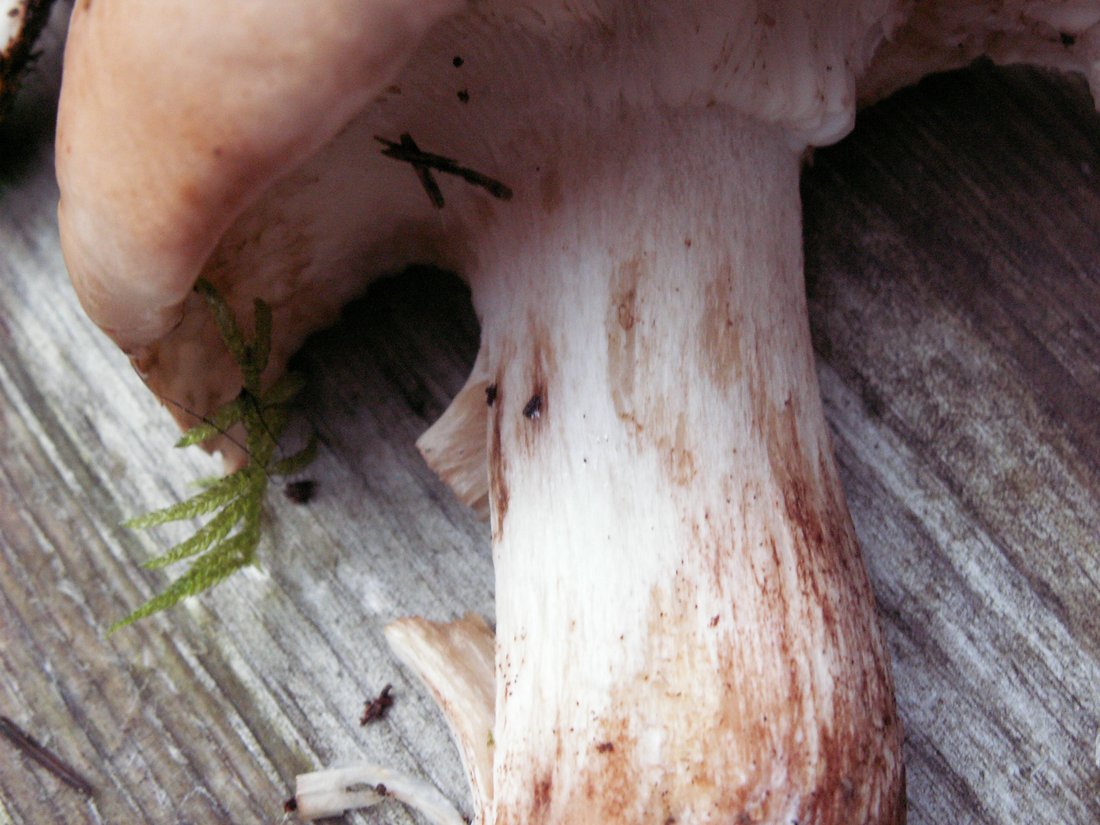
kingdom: Fungi
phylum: Basidiomycota
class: Agaricomycetes
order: Agaricales
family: Tricholomataceae
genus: Tricholoma
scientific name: Tricholoma pessundatum
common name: dråbeplettet ridderhat
